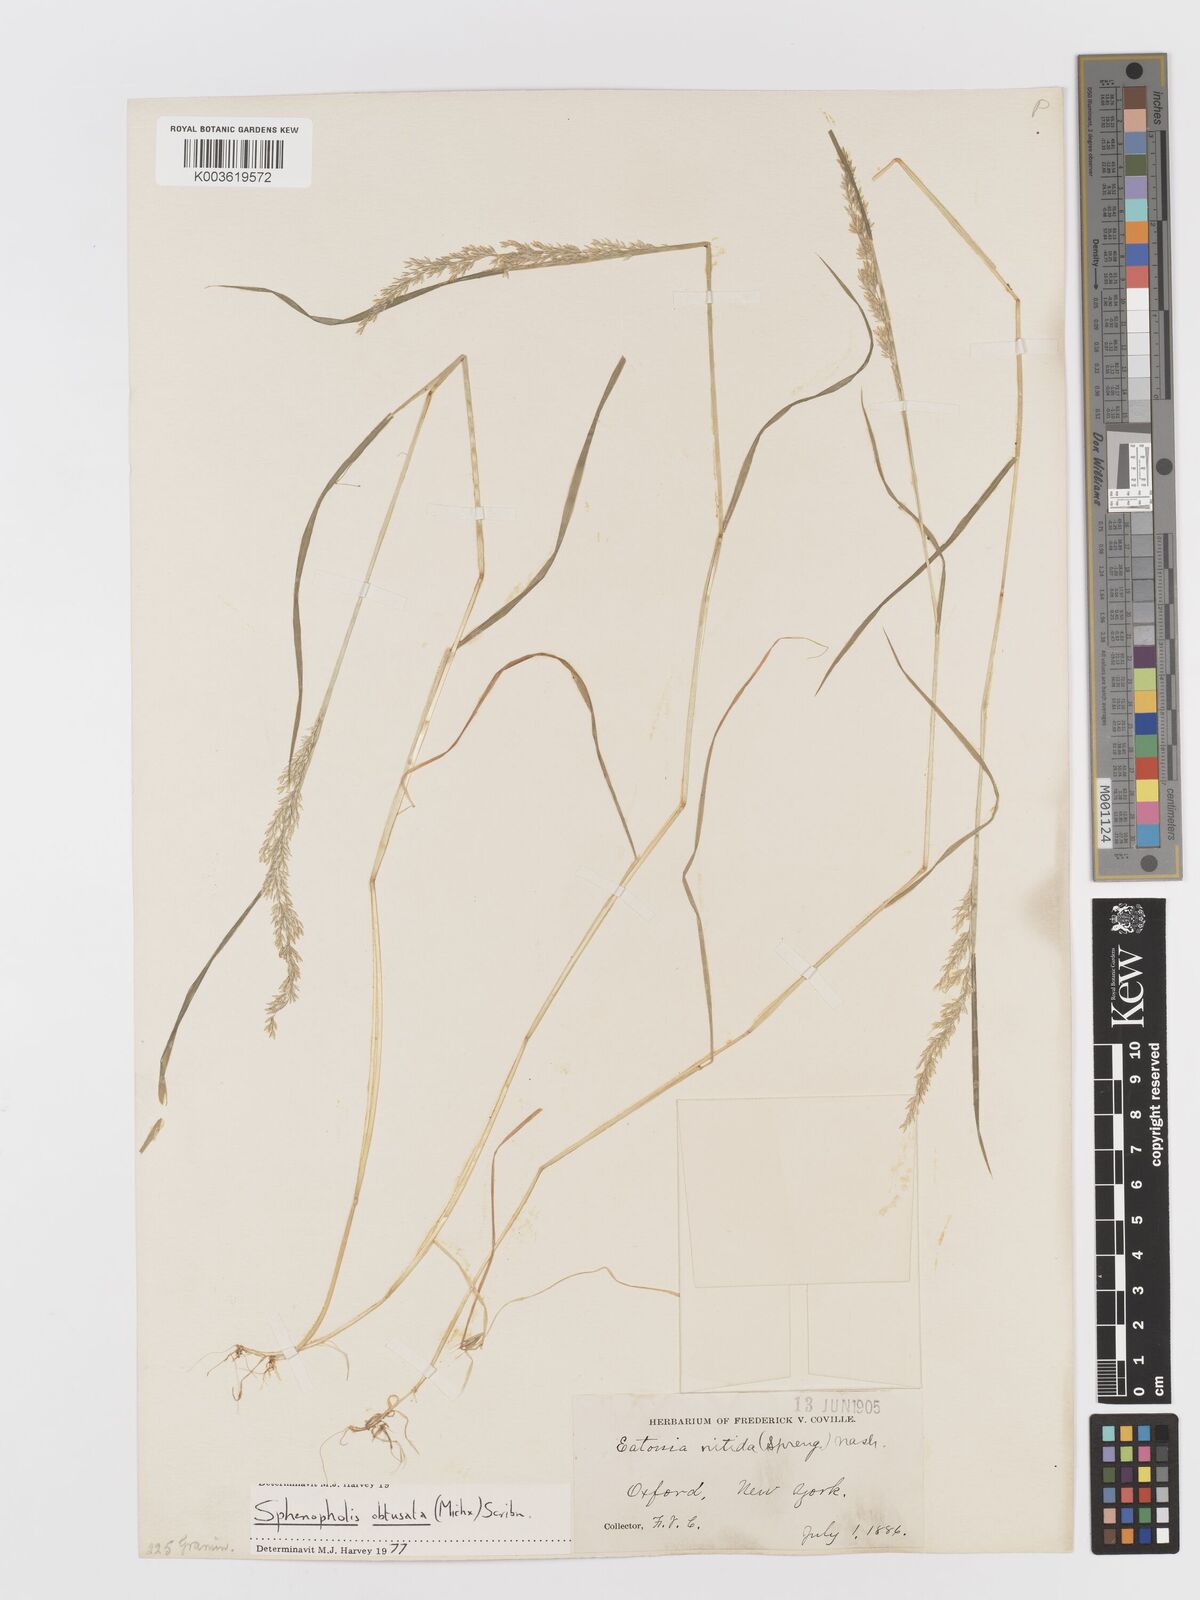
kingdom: Plantae
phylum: Tracheophyta
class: Liliopsida
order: Poales
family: Poaceae
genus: Sphenopholis
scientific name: Sphenopholis obtusata
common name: Prairie grass
